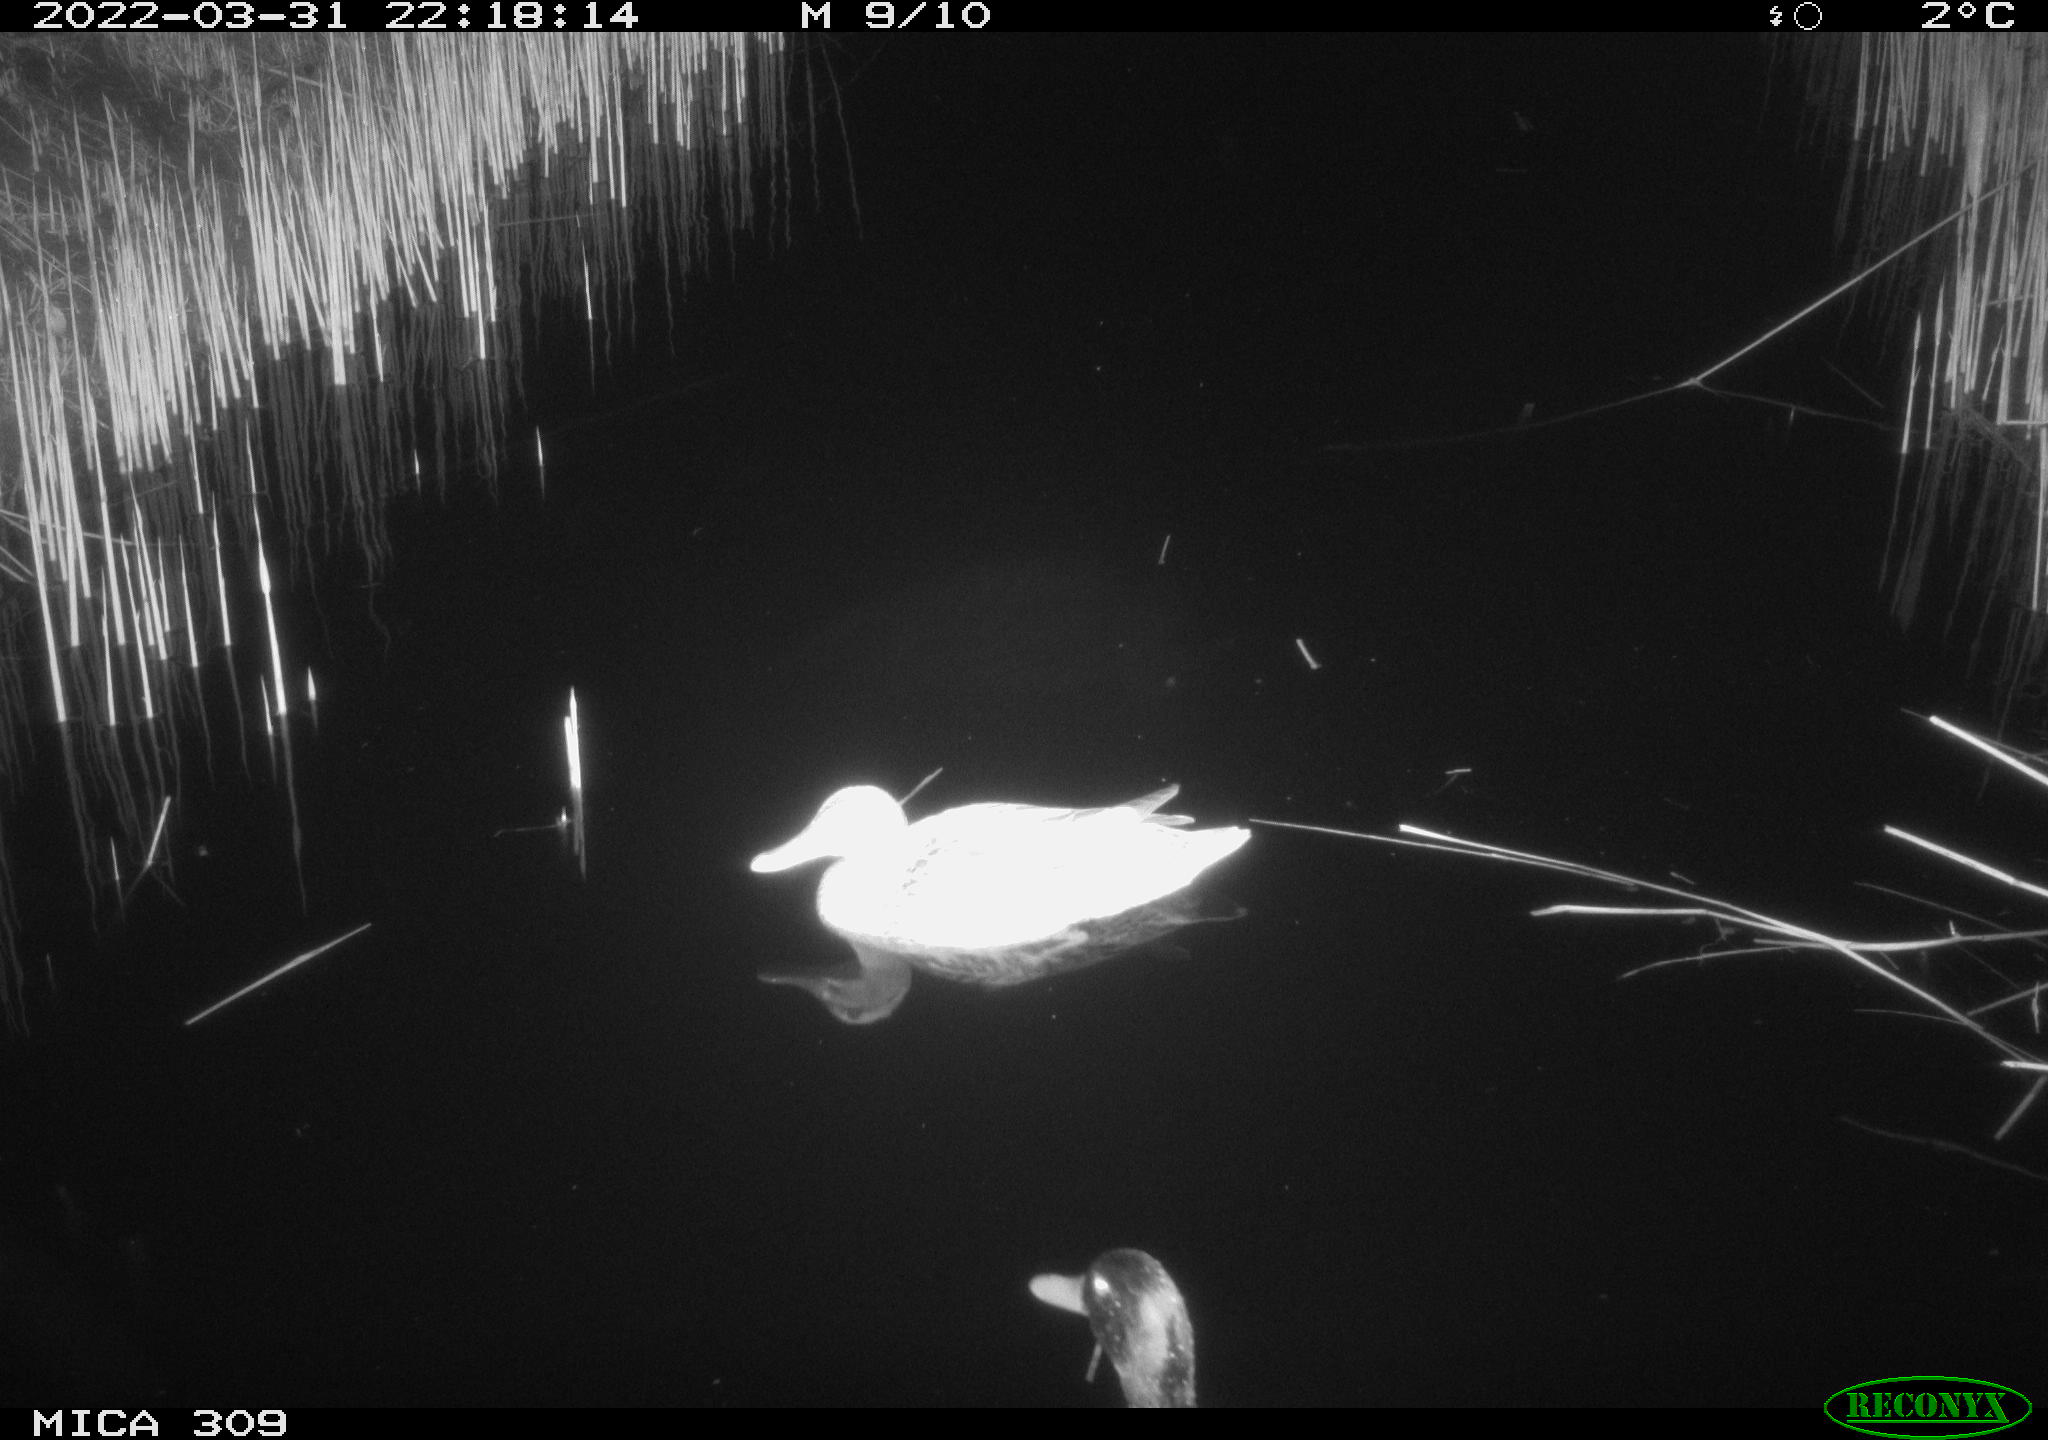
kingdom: Animalia
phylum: Chordata
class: Aves
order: Gruiformes
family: Rallidae
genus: Gallinula
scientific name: Gallinula chloropus
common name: Common moorhen
